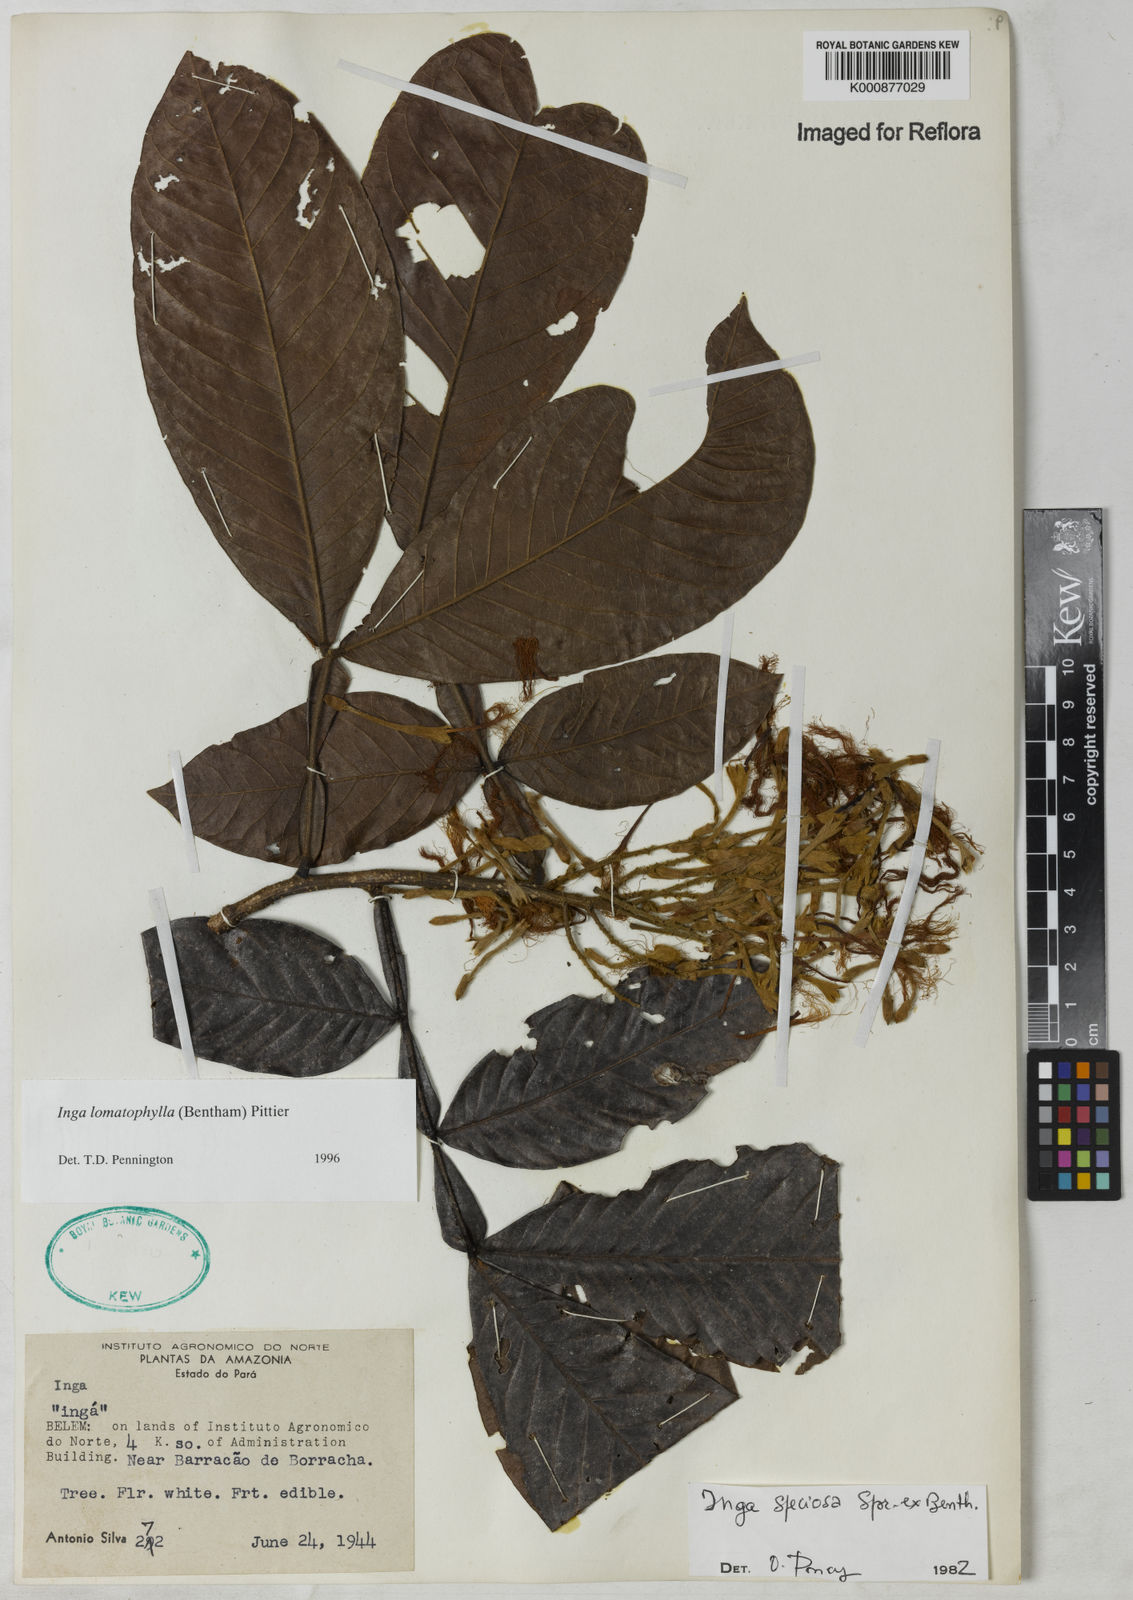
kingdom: Plantae
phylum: Tracheophyta
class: Magnoliopsida
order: Fabales
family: Fabaceae
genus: Inga
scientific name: Inga lomatophylla
